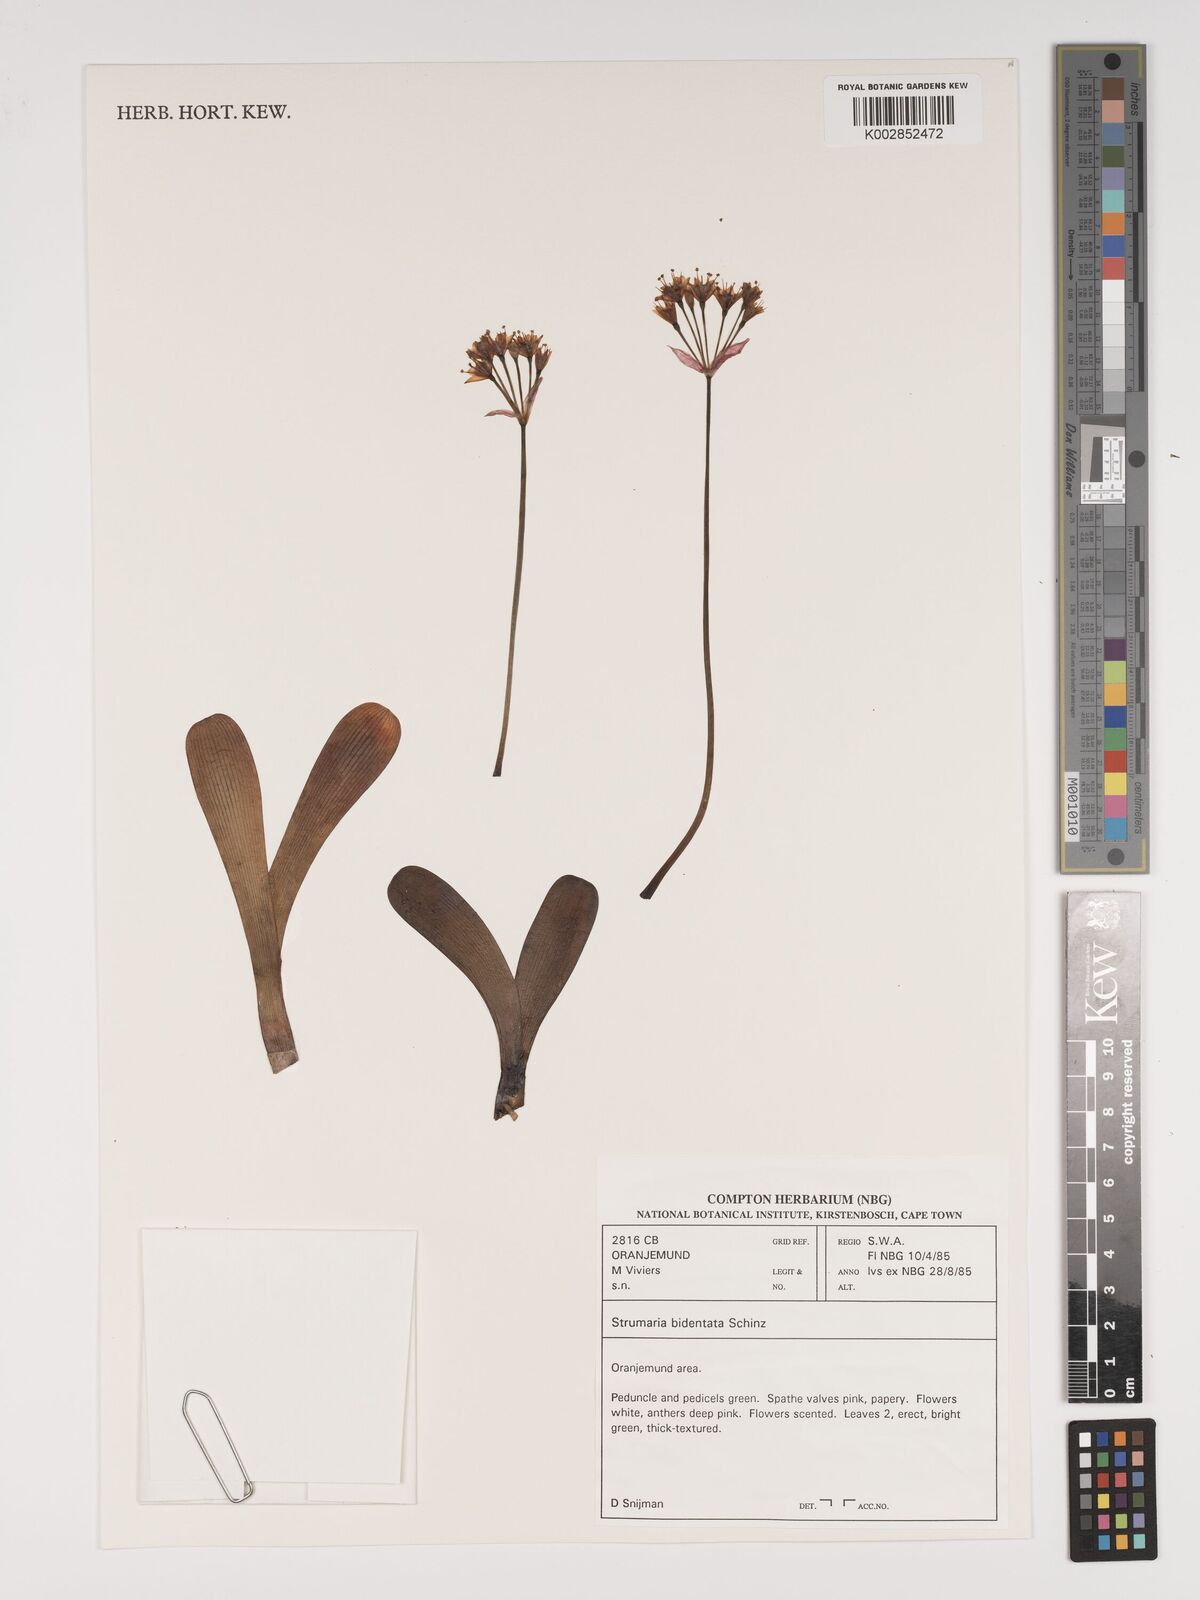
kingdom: Plantae
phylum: Tracheophyta
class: Liliopsida
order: Asparagales
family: Amaryllidaceae
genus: Strumaria
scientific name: Strumaria bidentata
